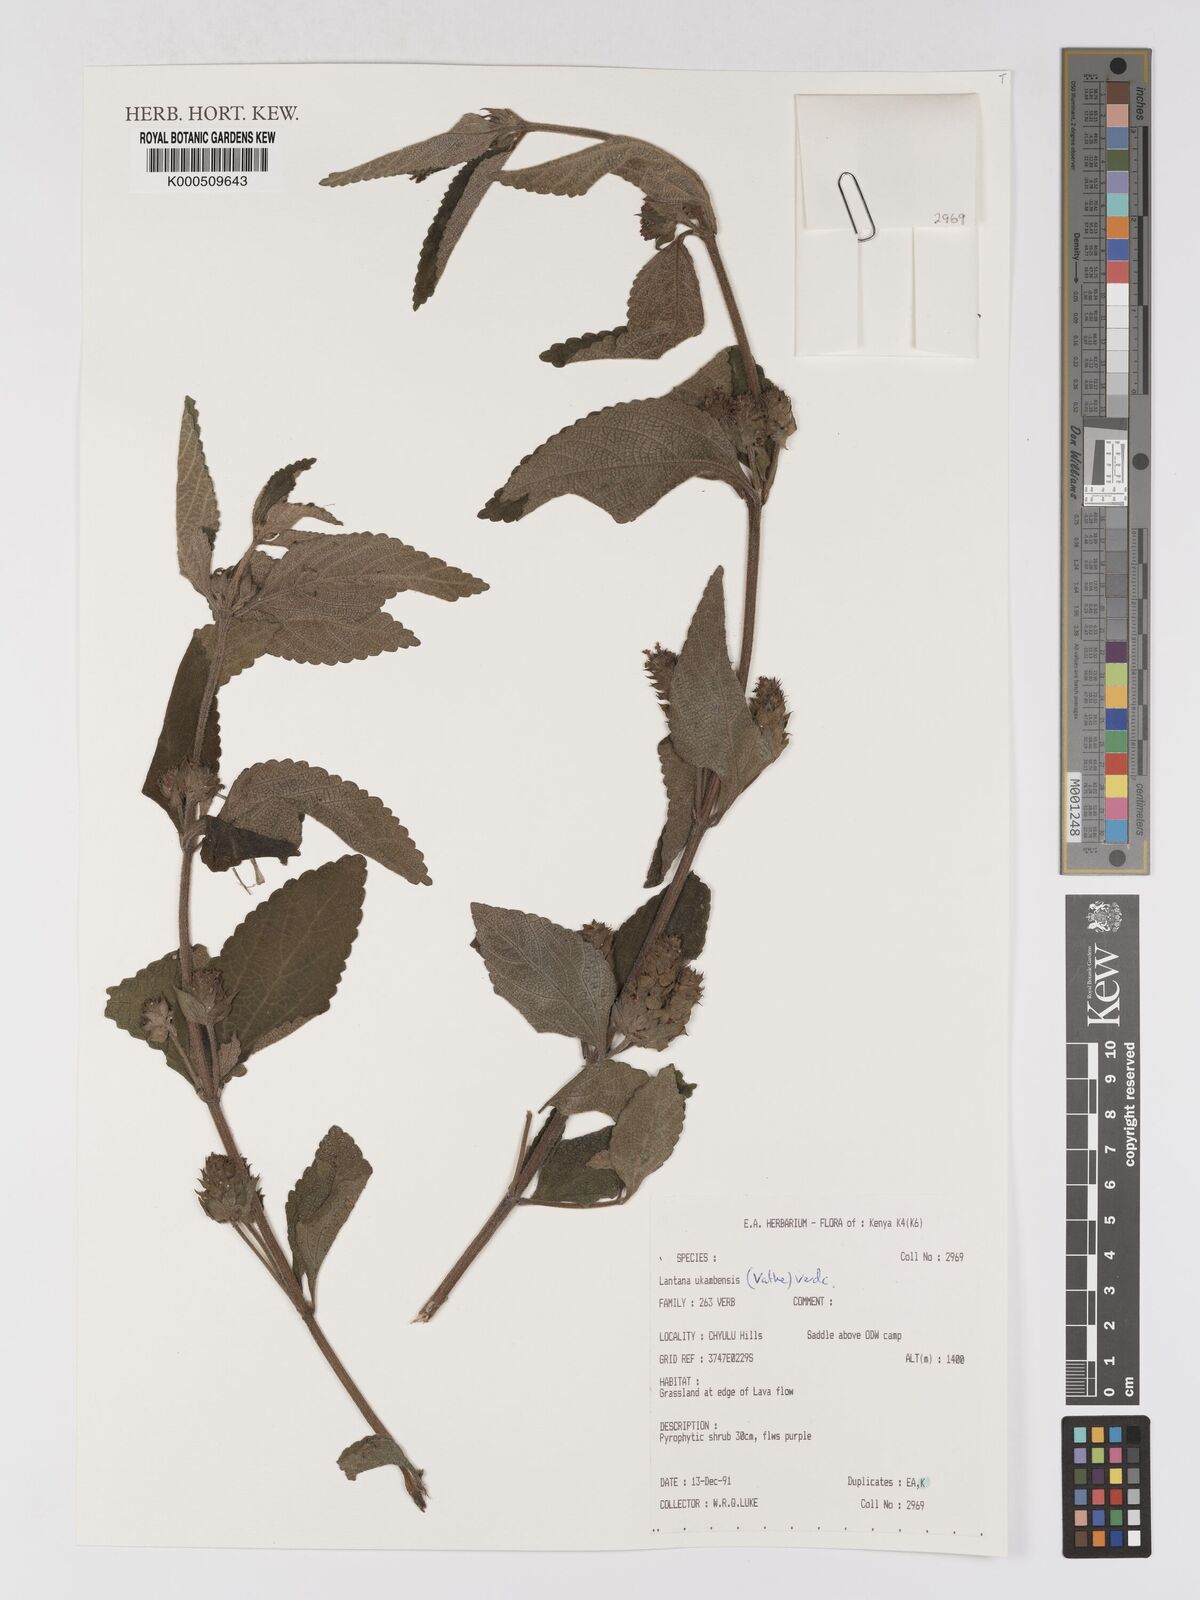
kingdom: Plantae
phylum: Tracheophyta
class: Magnoliopsida
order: Lamiales
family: Verbenaceae
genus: Lantana
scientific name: Lantana ukambensis
